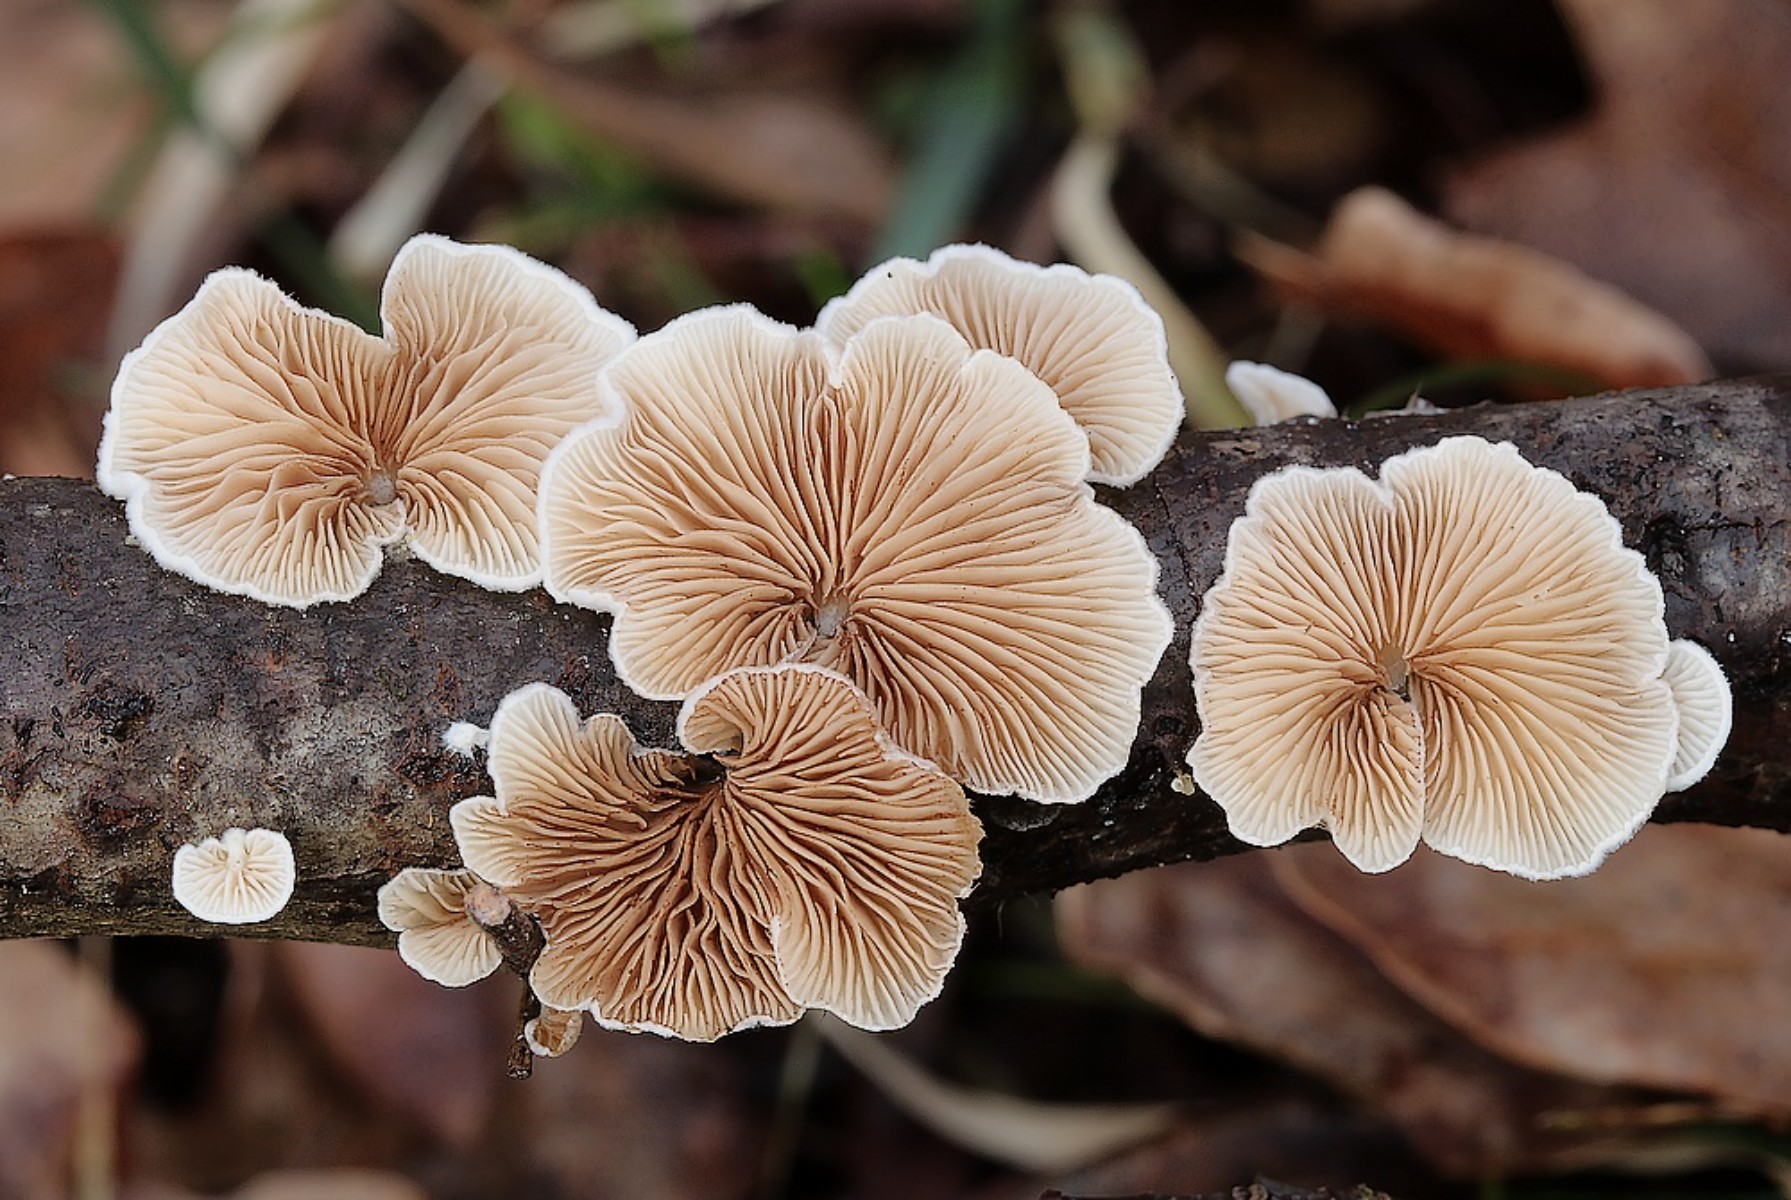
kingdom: Fungi
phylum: Basidiomycota
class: Agaricomycetes
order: Agaricales
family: Crepidotaceae
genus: Crepidotus
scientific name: Crepidotus
